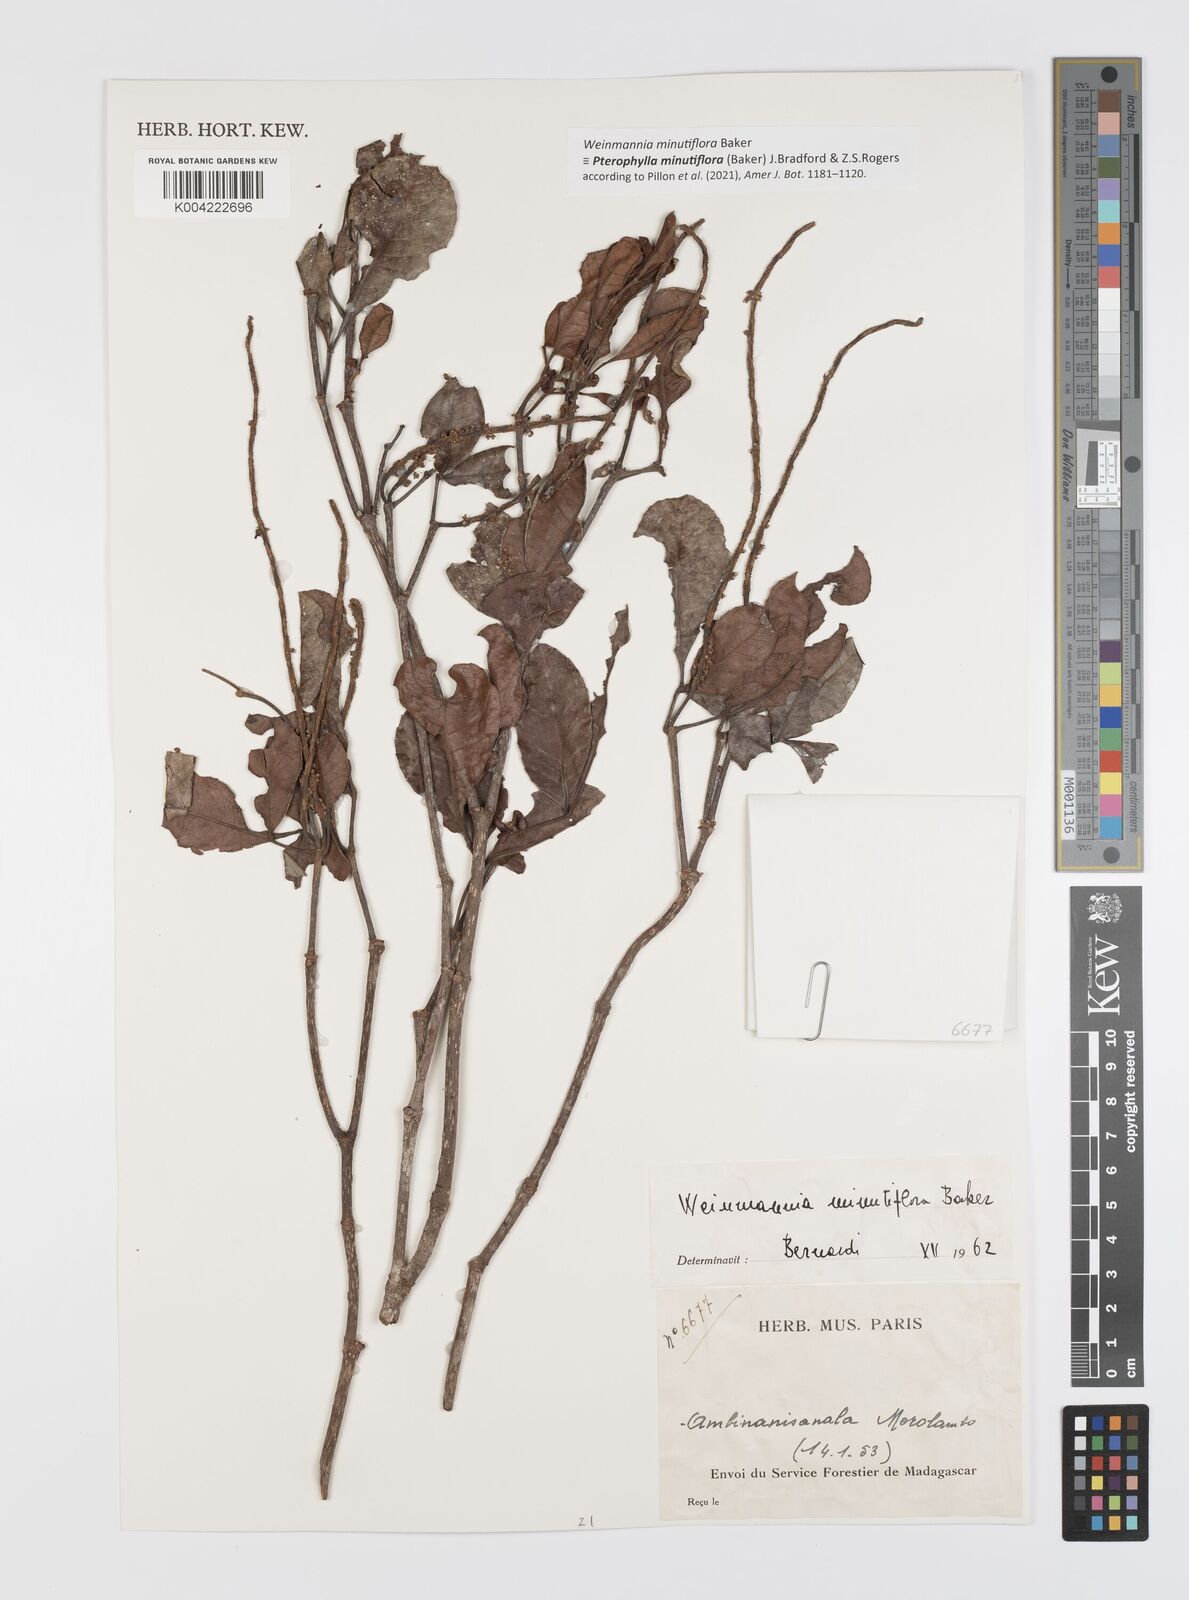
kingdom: Plantae
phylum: Tracheophyta
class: Magnoliopsida
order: Oxalidales
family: Cunoniaceae
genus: Pterophylla
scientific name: Pterophylla
